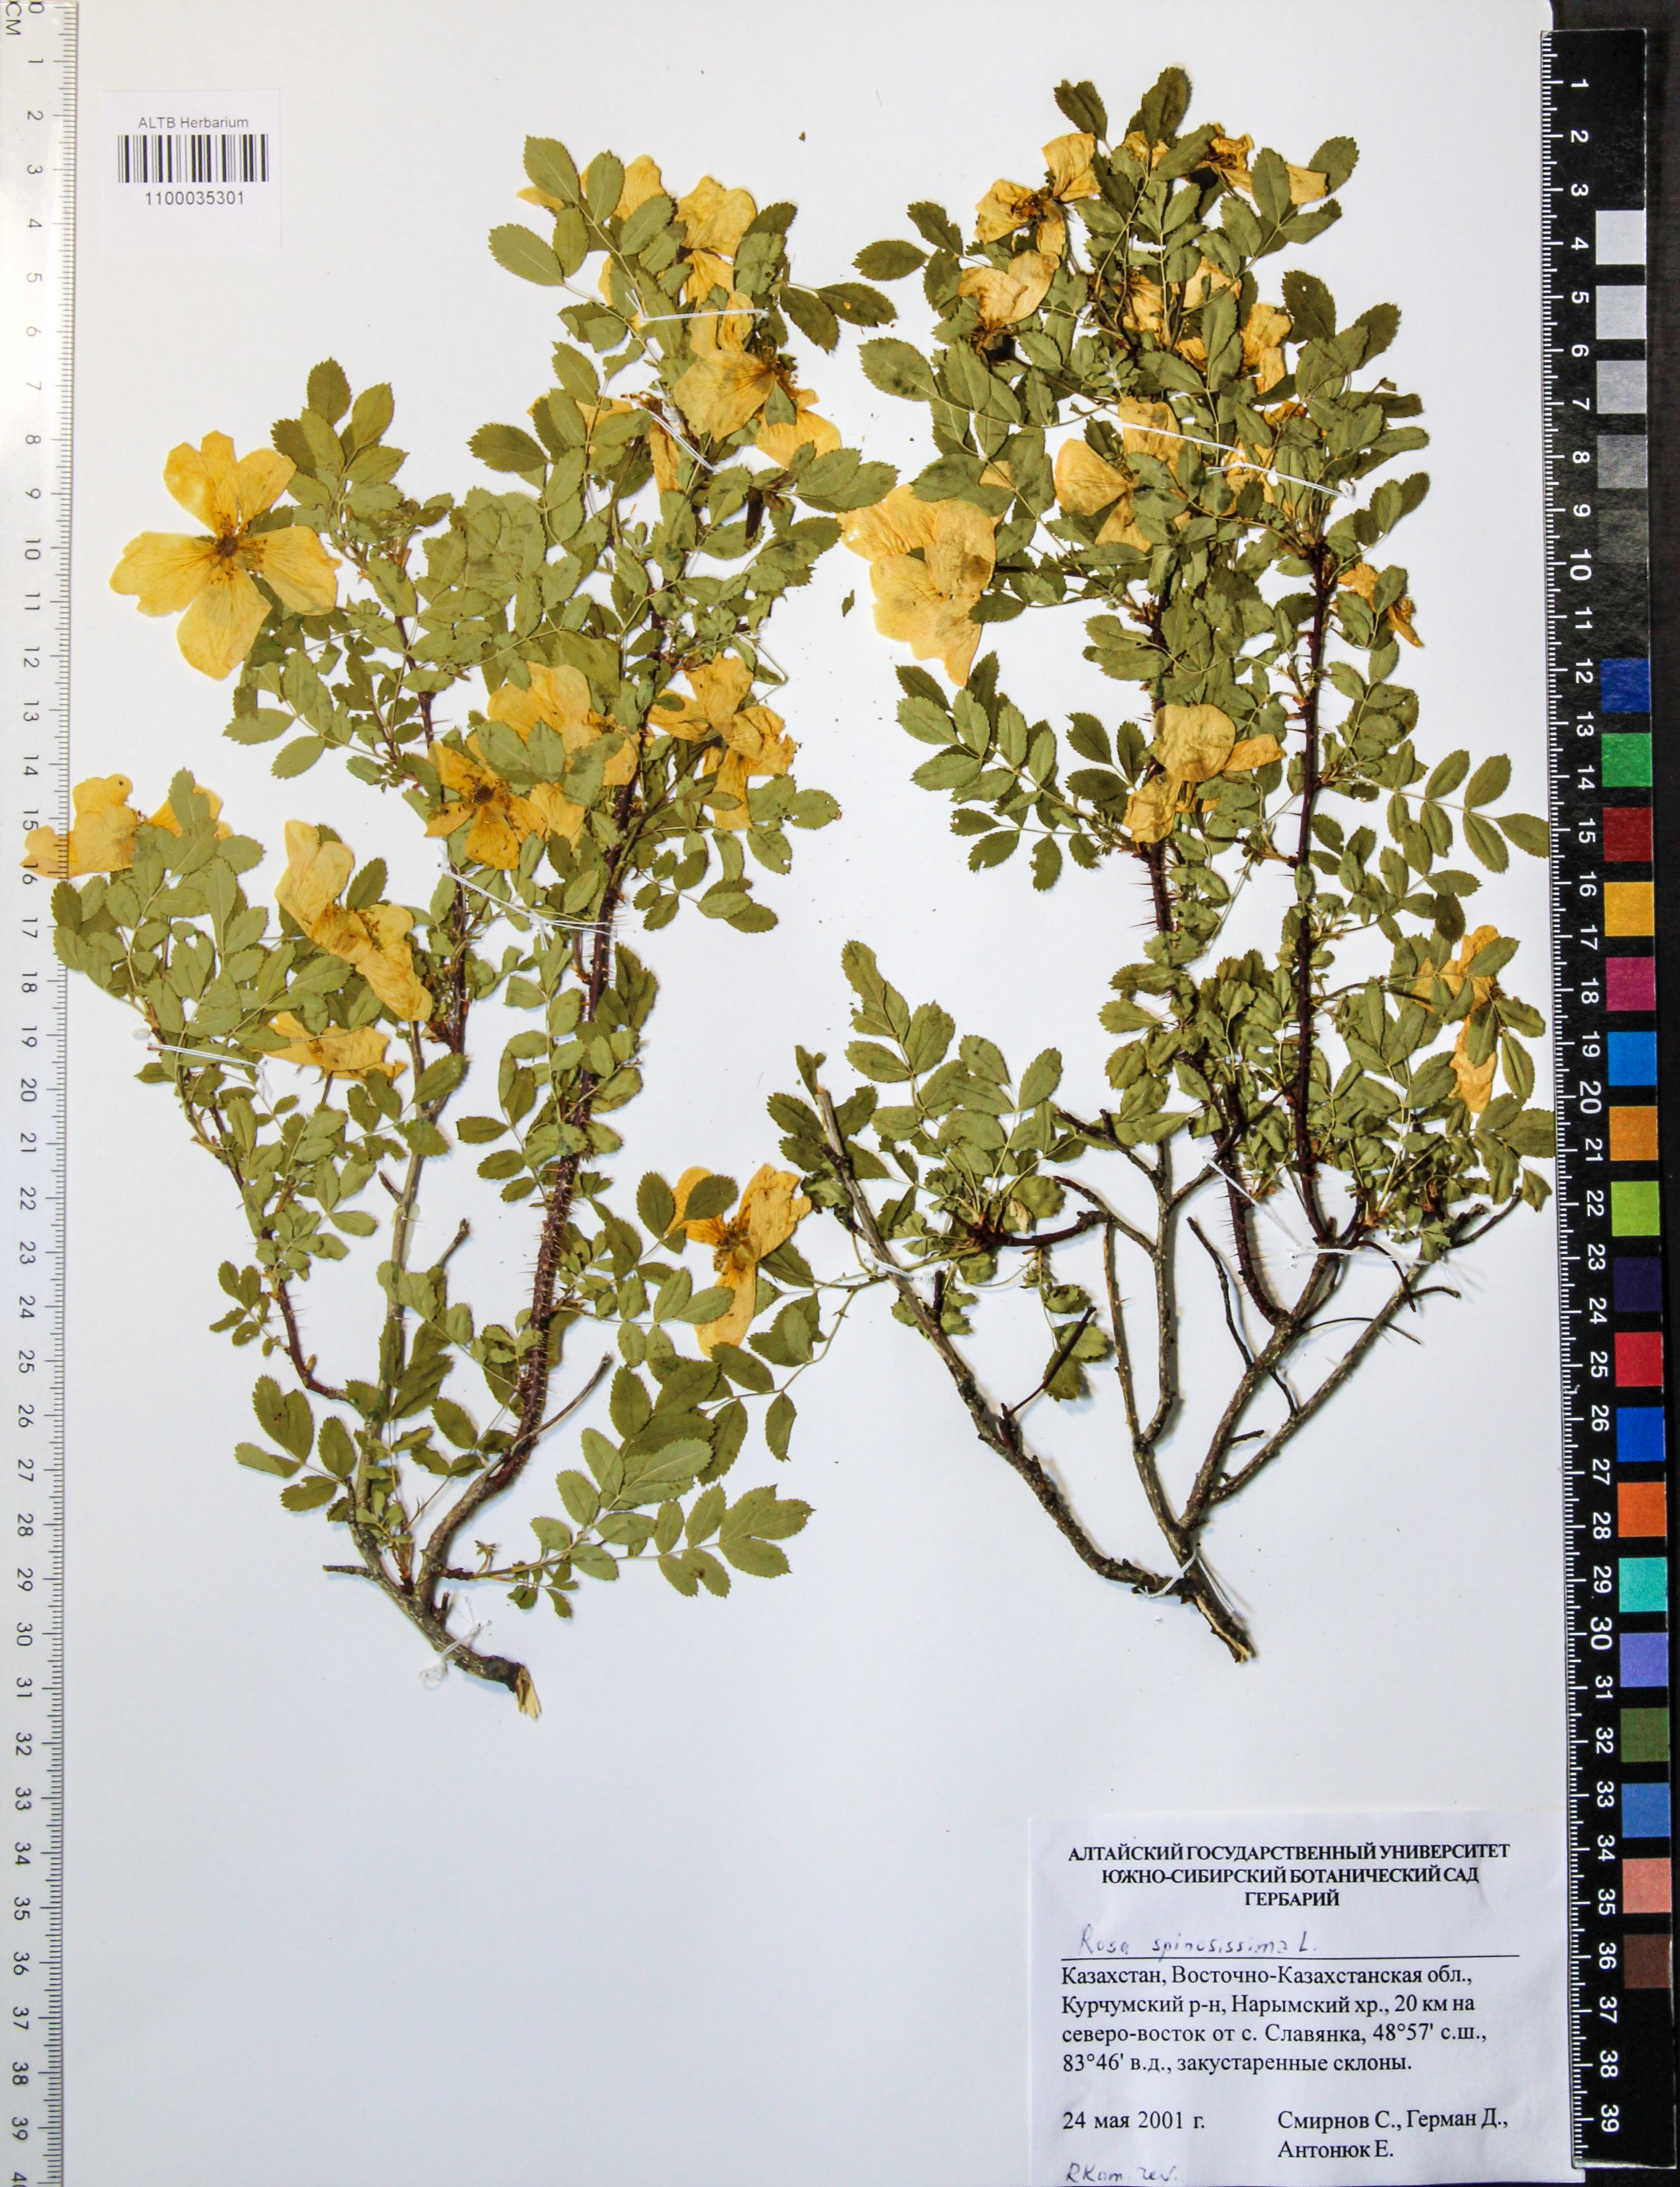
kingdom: Plantae
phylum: Tracheophyta
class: Magnoliopsida
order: Rosales
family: Rosaceae
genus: Rosa
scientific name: Rosa spinosissima
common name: Burnet rose
